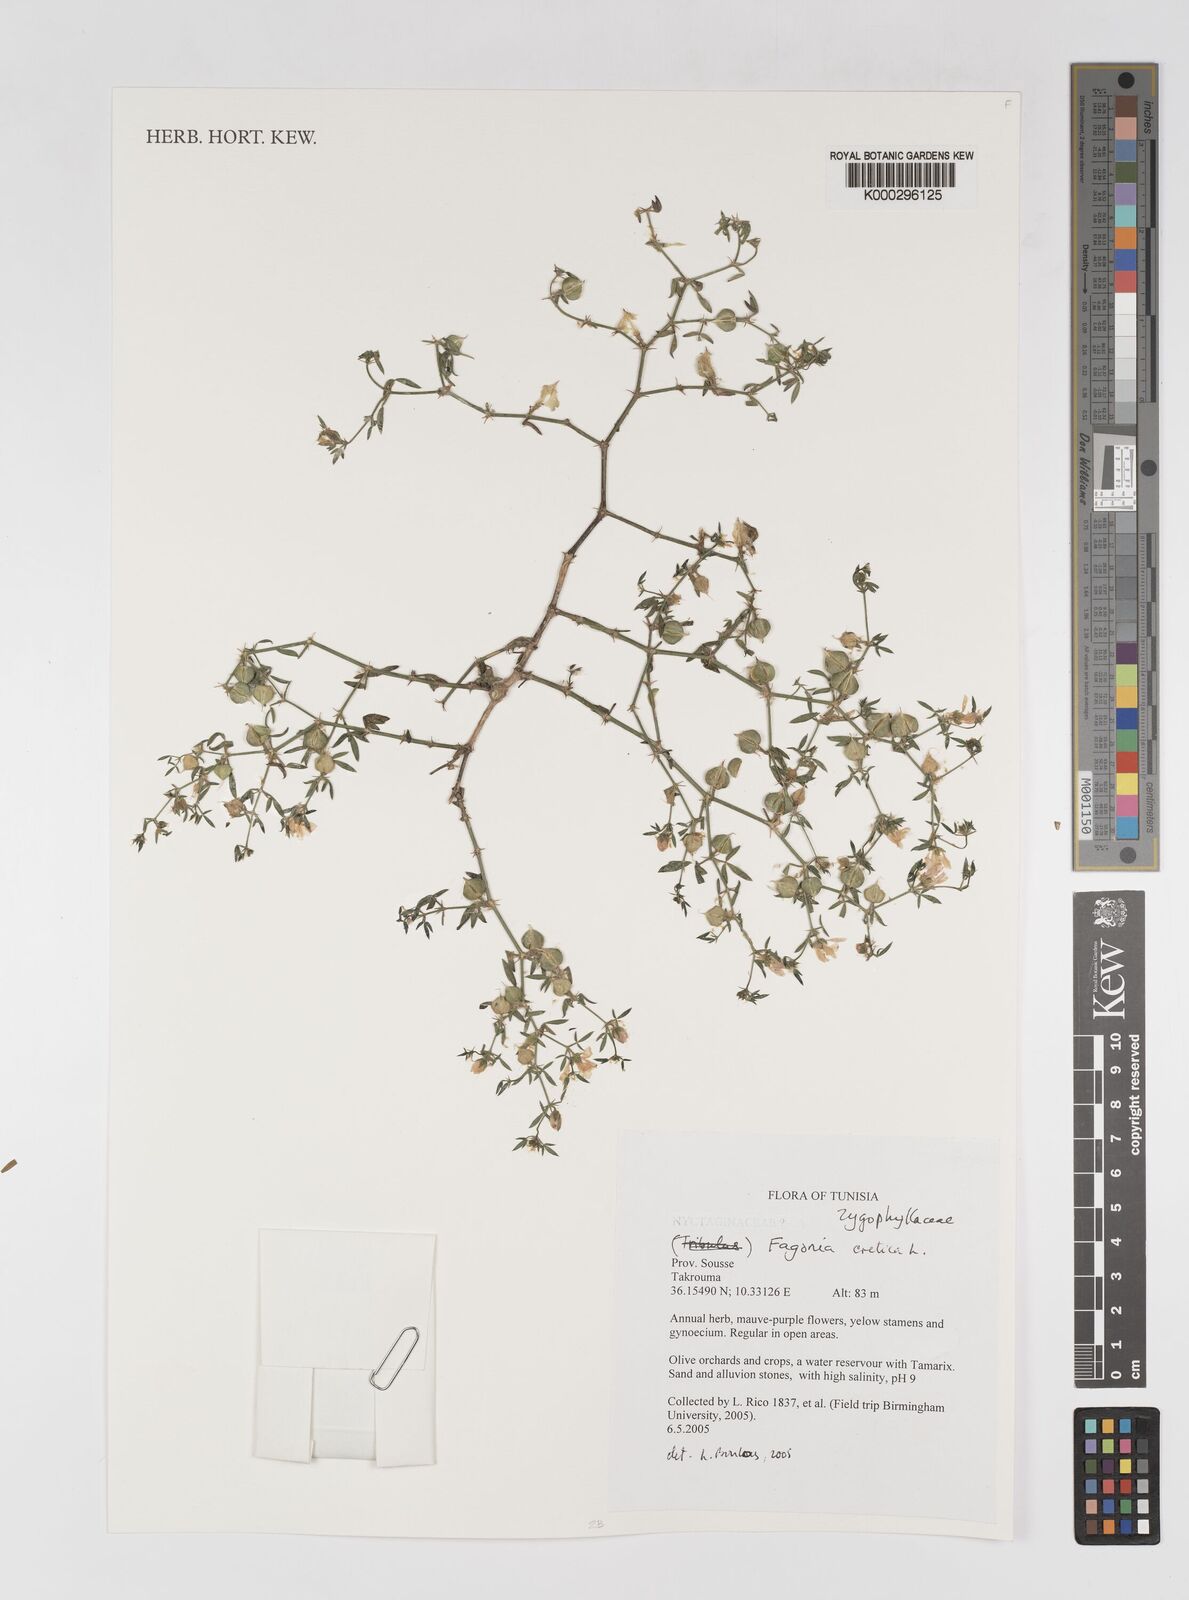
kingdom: Plantae
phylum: Tracheophyta
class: Magnoliopsida
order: Zygophyllales
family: Zygophyllaceae
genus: Fagonia
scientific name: Fagonia cretica
